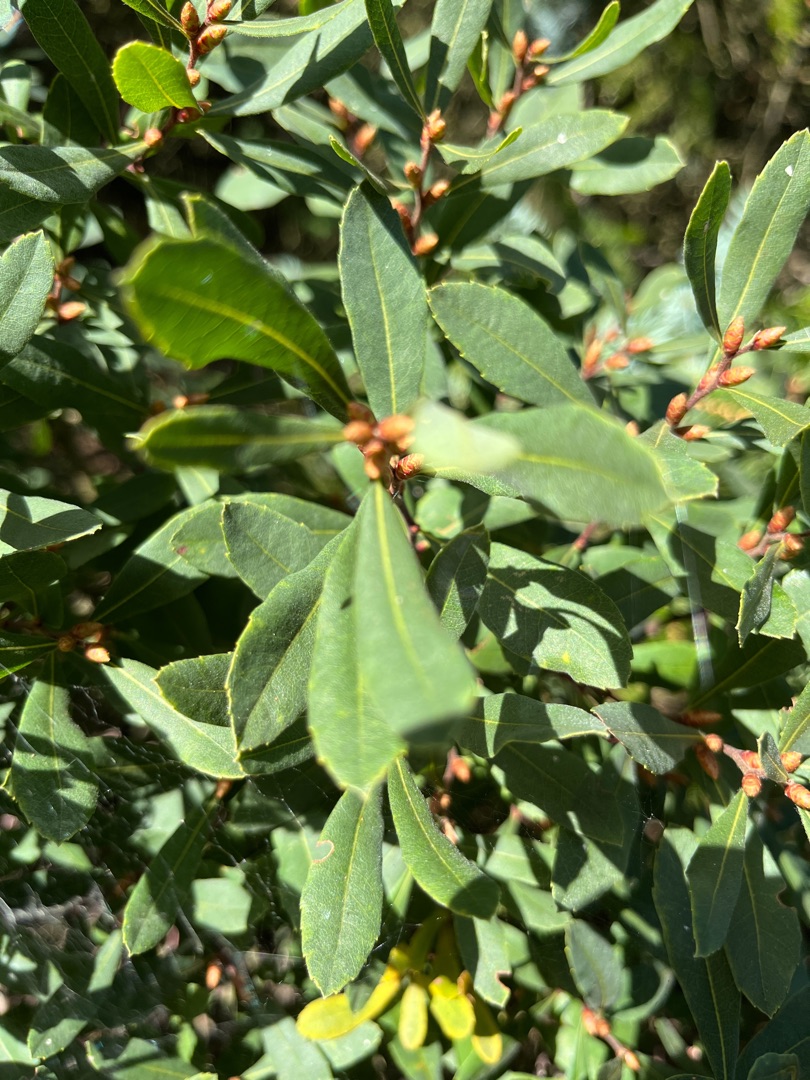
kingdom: Plantae
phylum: Tracheophyta
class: Magnoliopsida
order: Fagales
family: Myricaceae
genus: Myrica
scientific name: Myrica gale
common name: Pors
